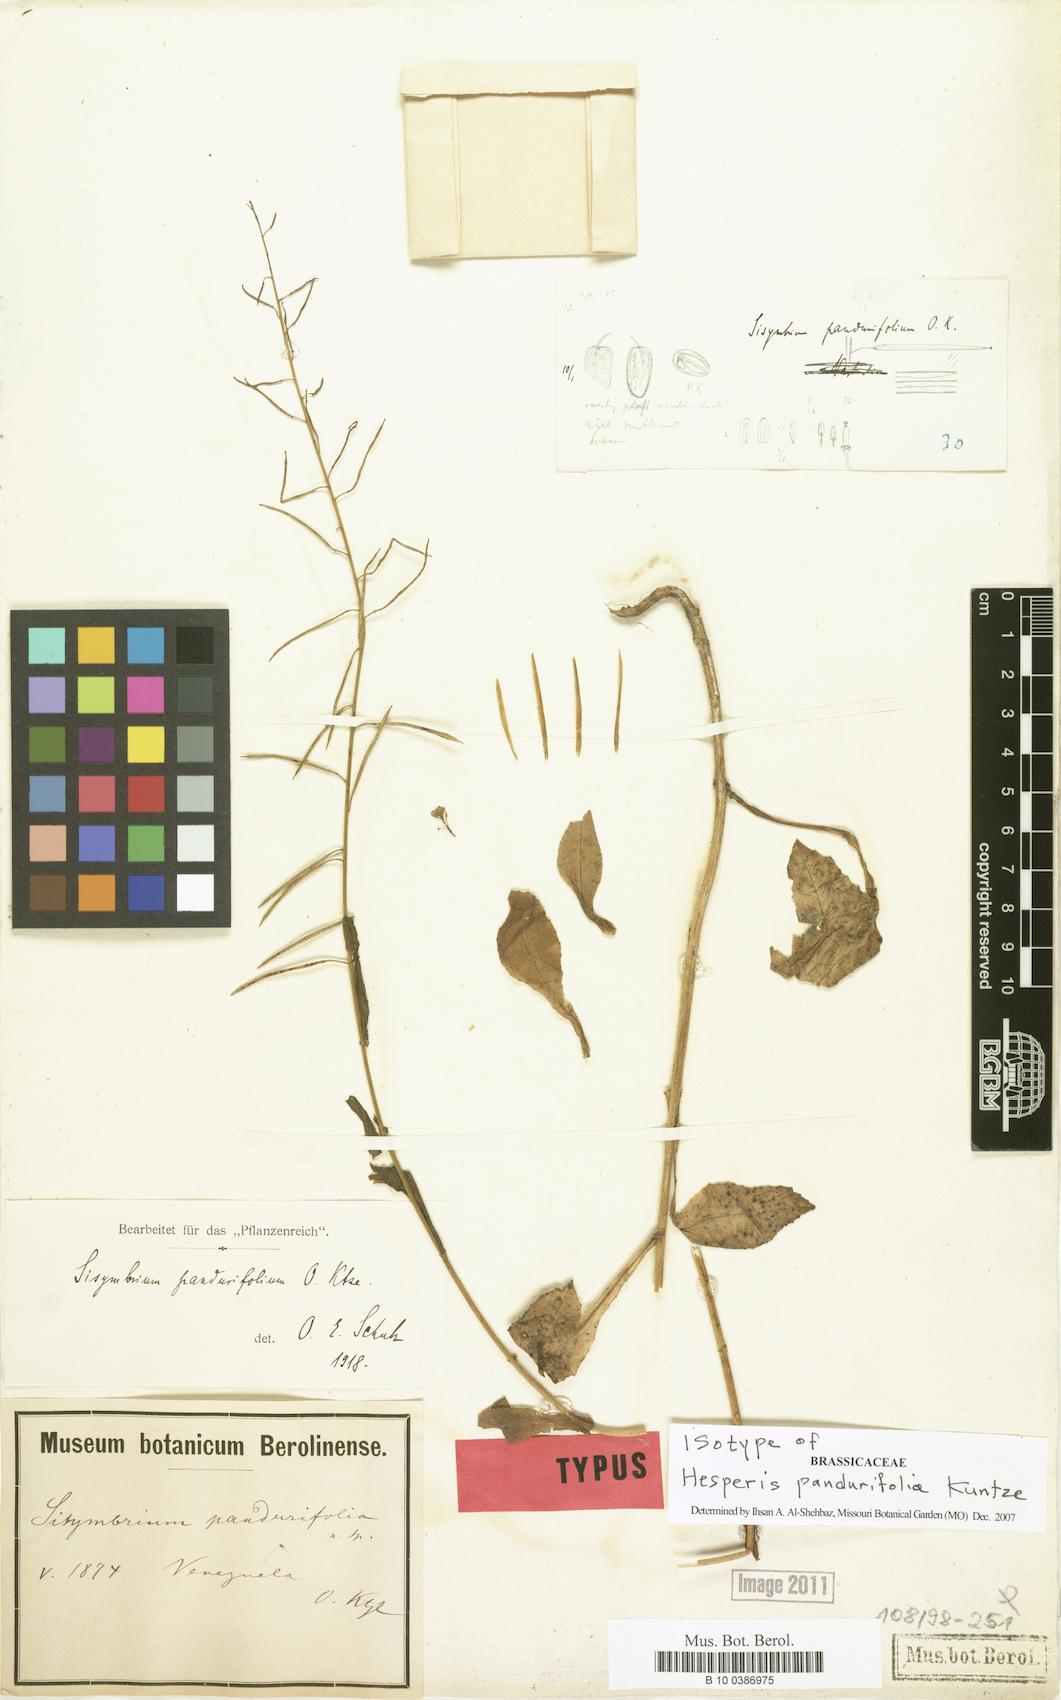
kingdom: Plantae
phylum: Tracheophyta
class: Magnoliopsida
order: Brassicales
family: Brassicaceae
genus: Mostacillastrum
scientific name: Mostacillastrum pandurifolium
